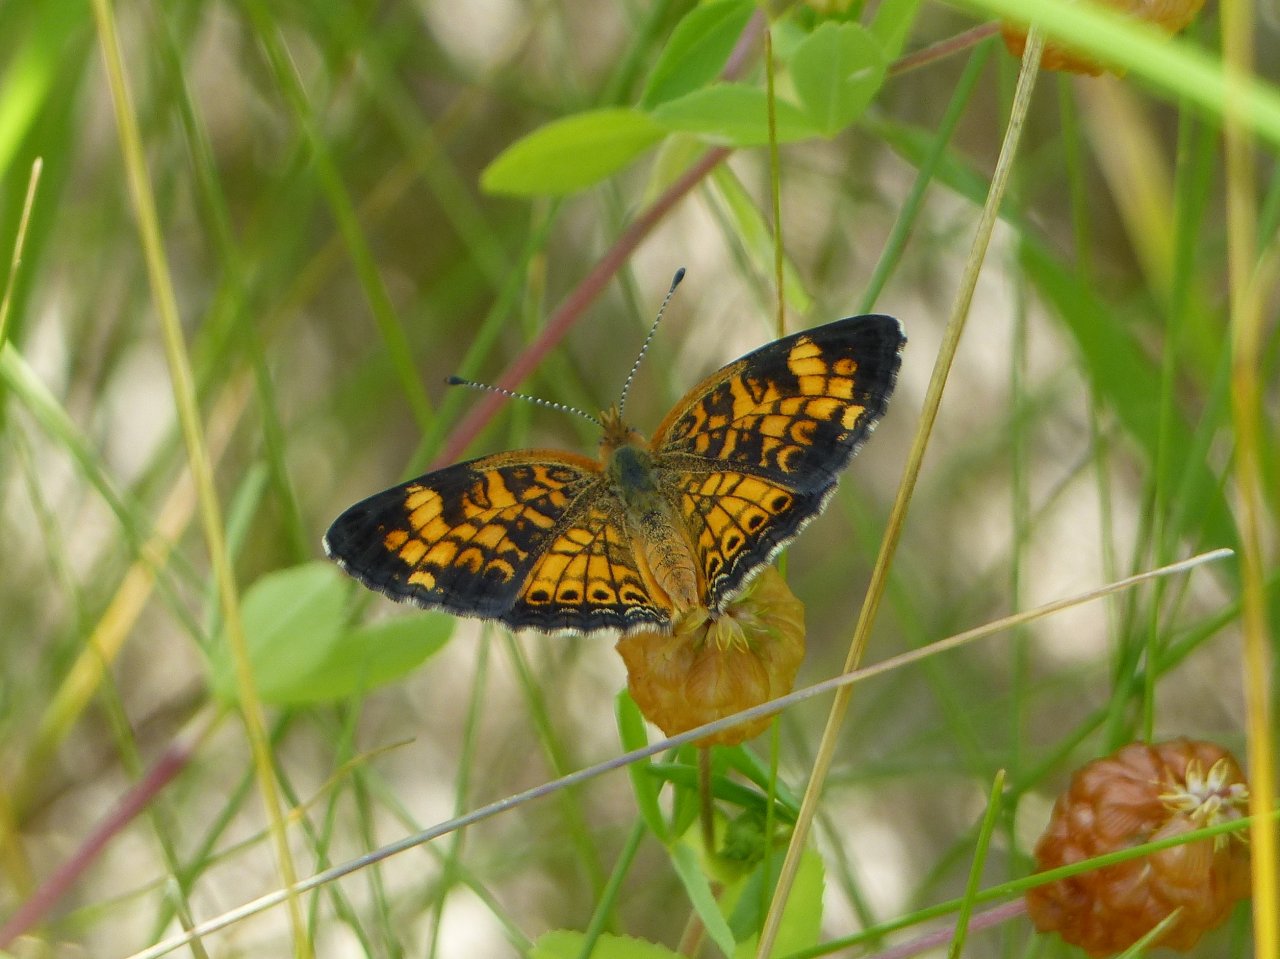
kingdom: Animalia
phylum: Arthropoda
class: Insecta
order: Lepidoptera
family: Nymphalidae
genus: Phyciodes
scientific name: Phyciodes tharos
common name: Pearl Crescent
